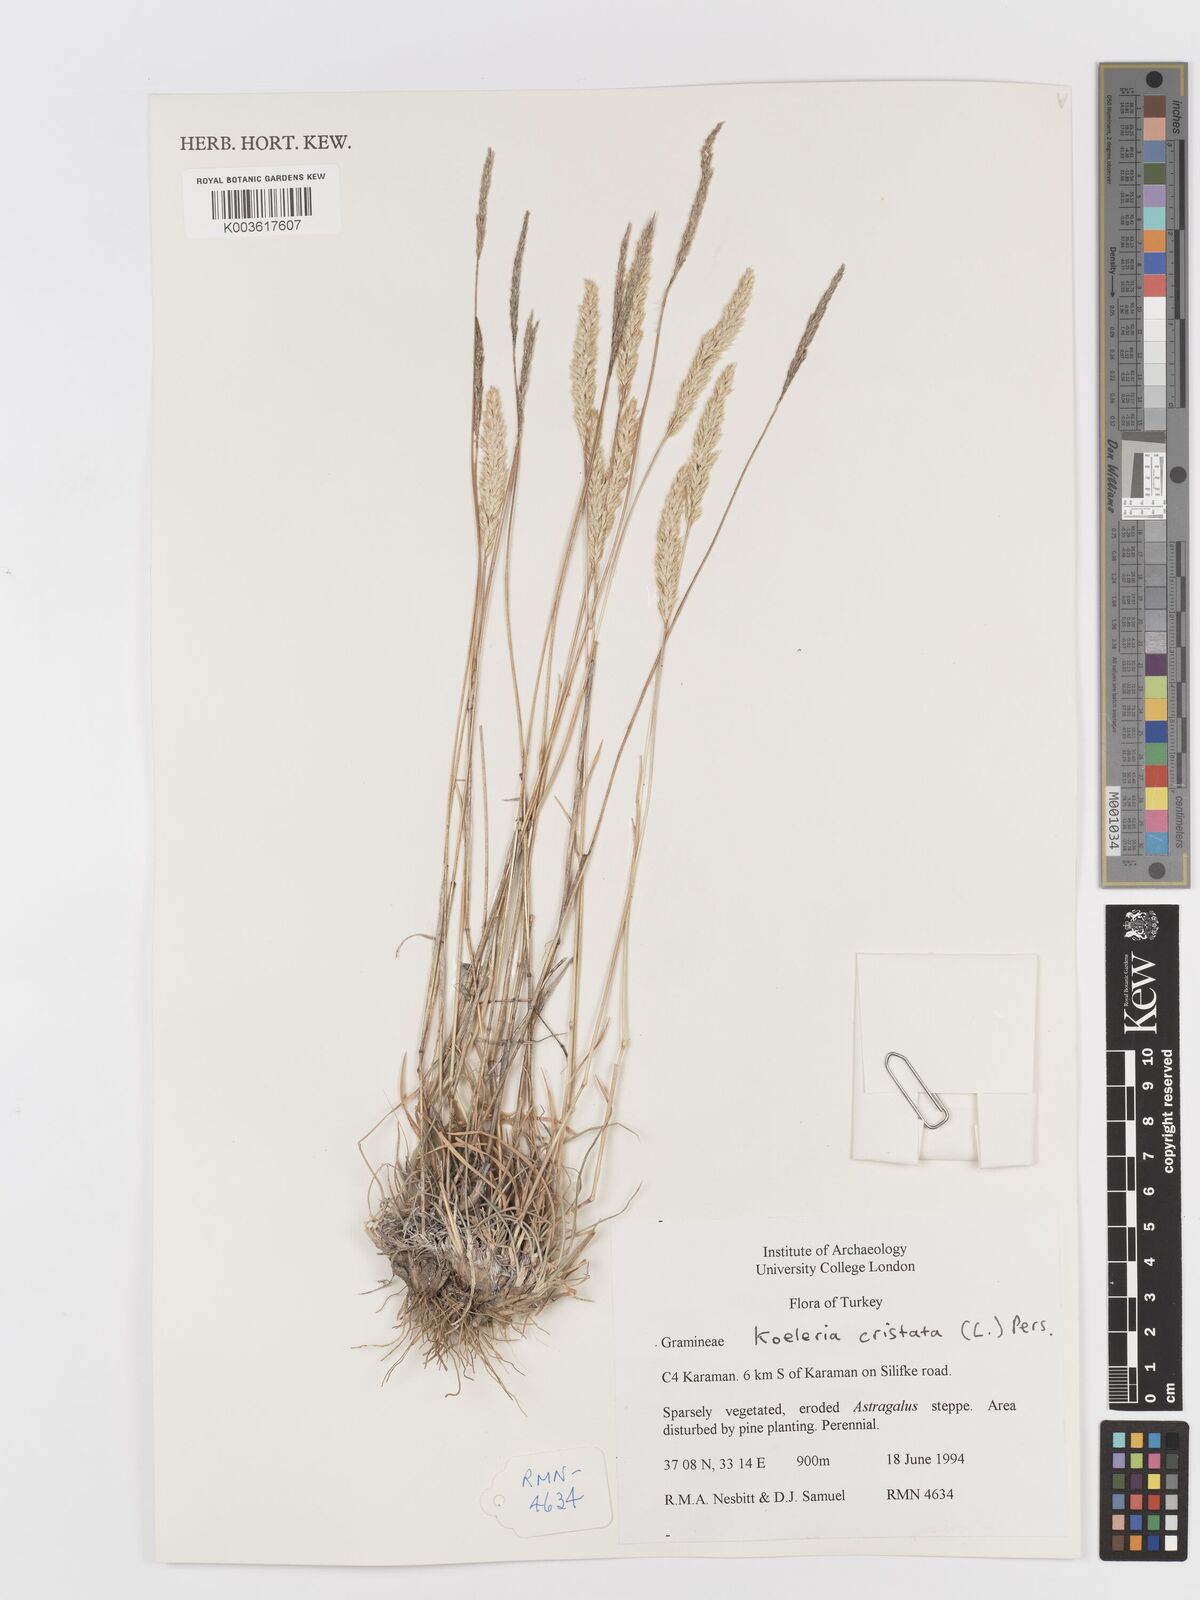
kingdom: Plantae
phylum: Tracheophyta
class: Liliopsida
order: Poales
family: Poaceae
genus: Koeleria
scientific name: Koeleria macrantha
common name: Crested hair-grass
